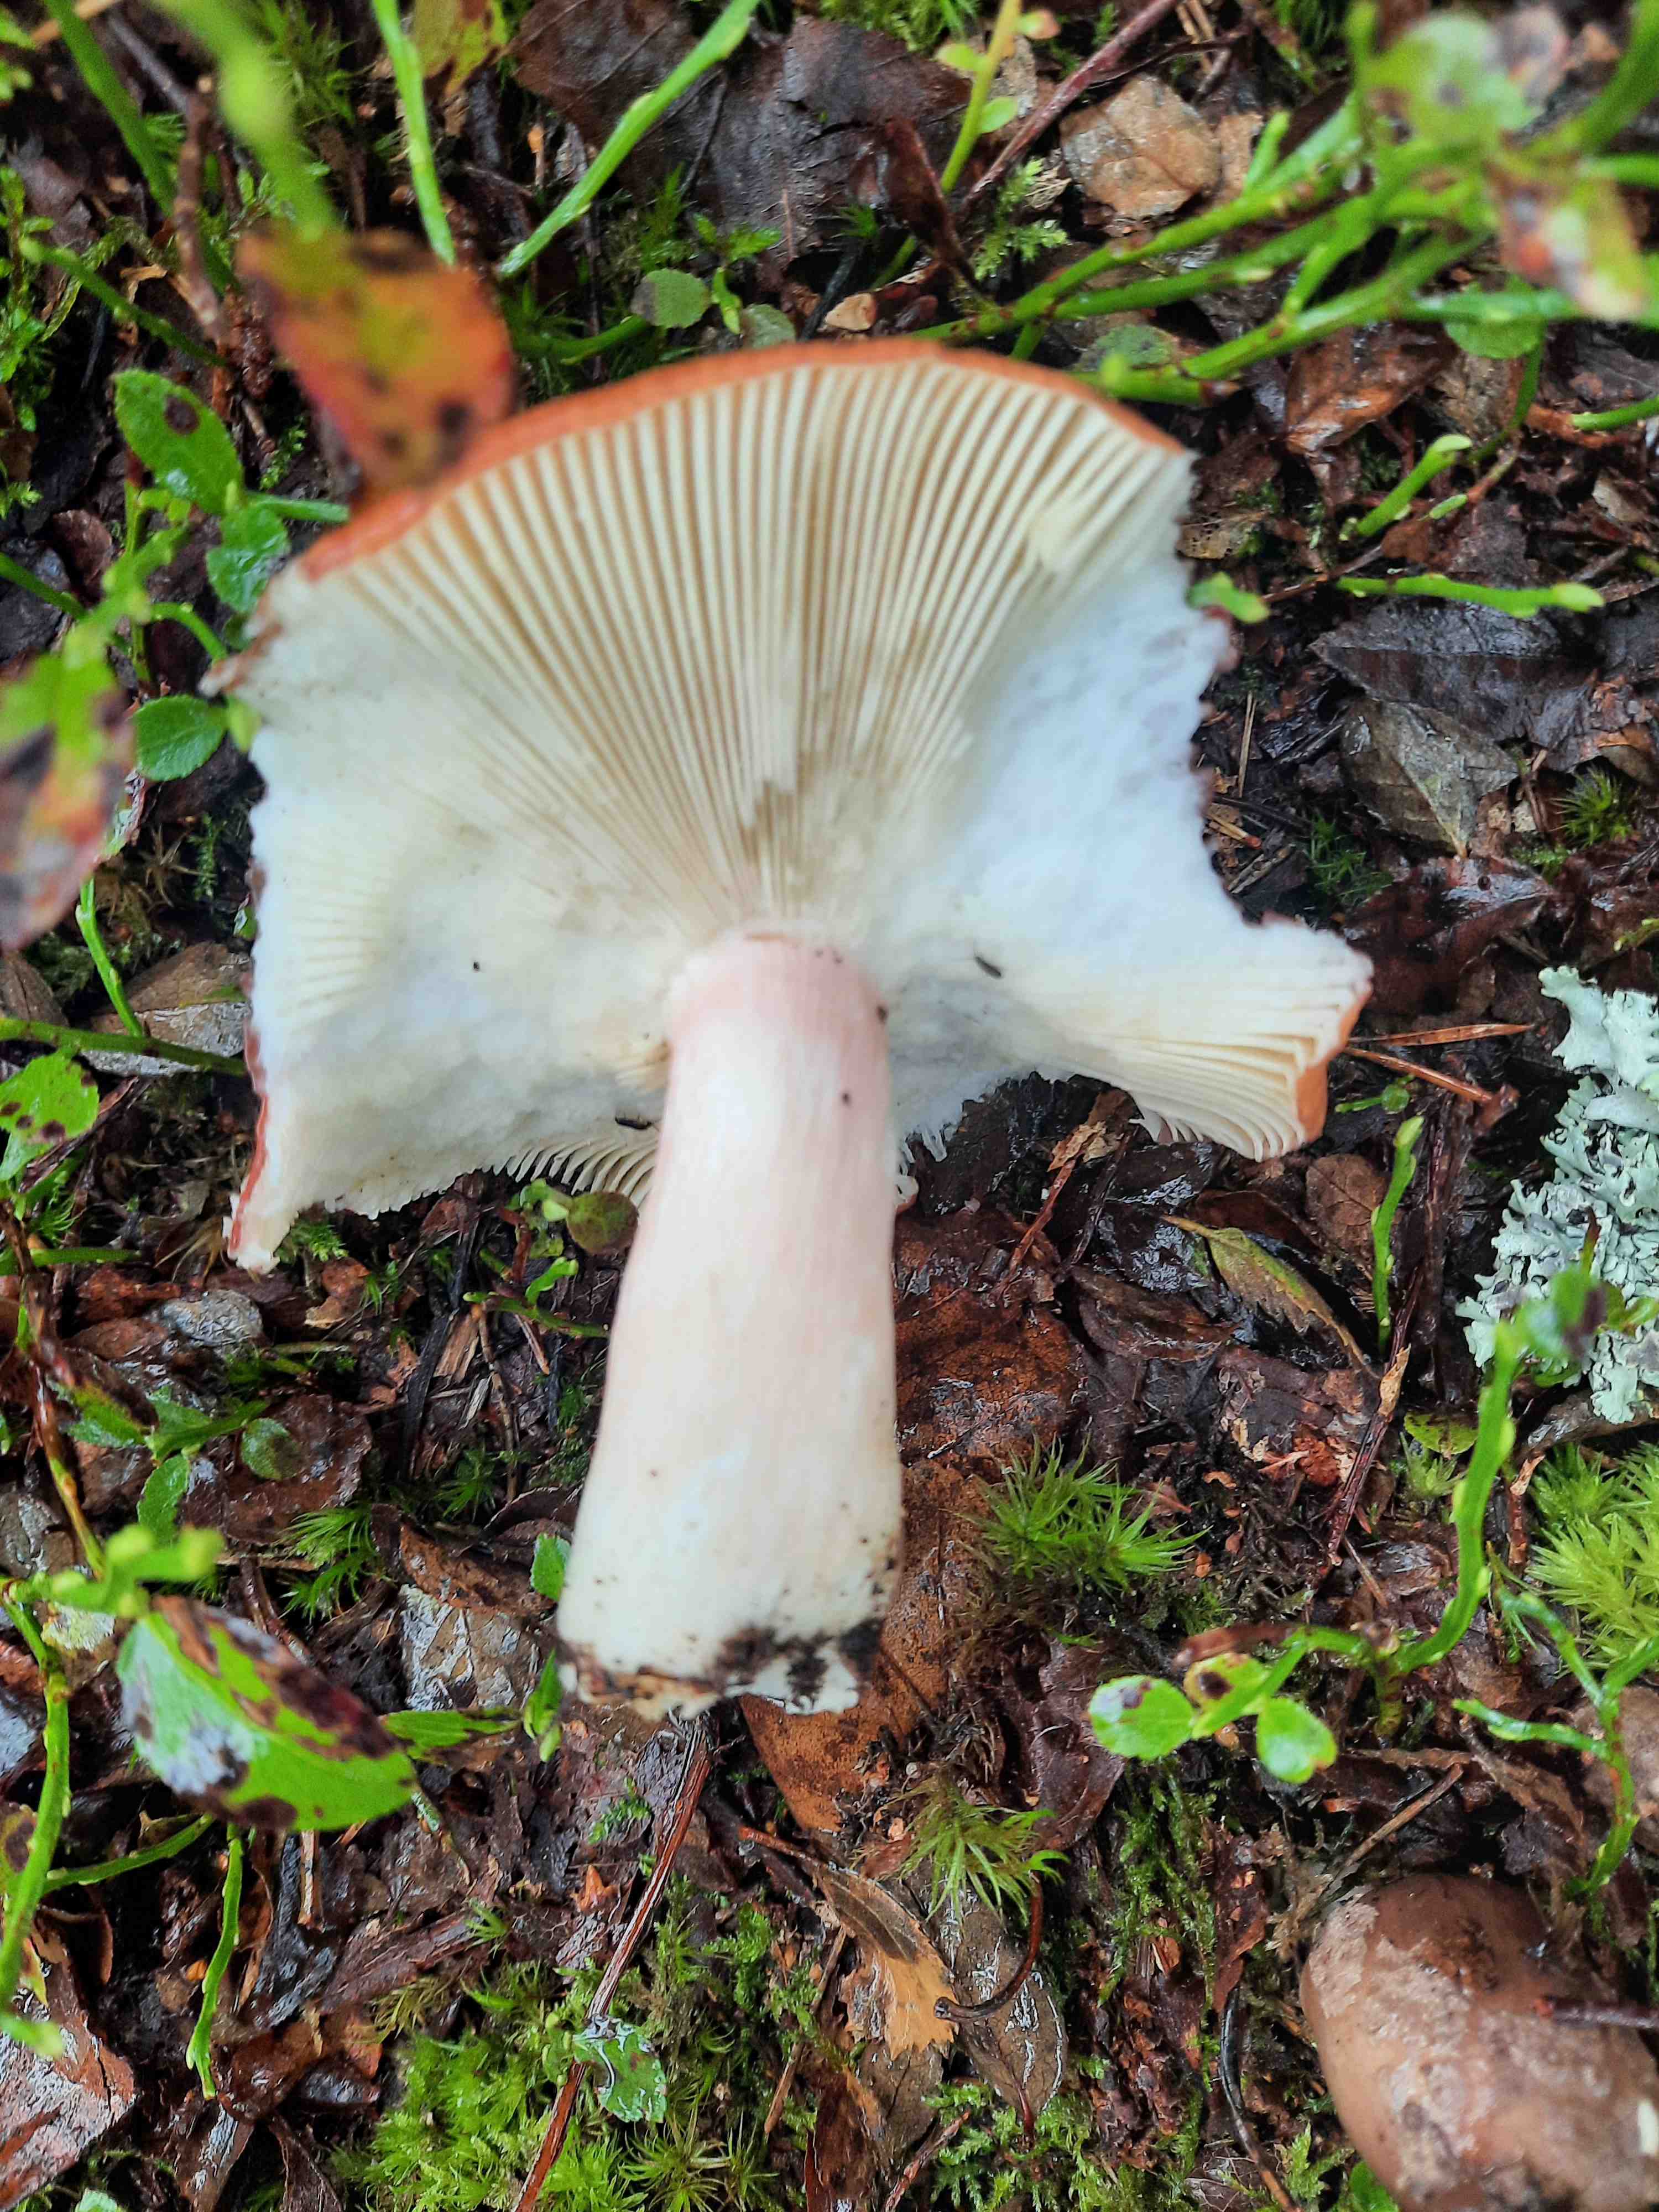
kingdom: Fungi
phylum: Basidiomycota
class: Agaricomycetes
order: Russulales
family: Russulaceae
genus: Russula
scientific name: Russula
